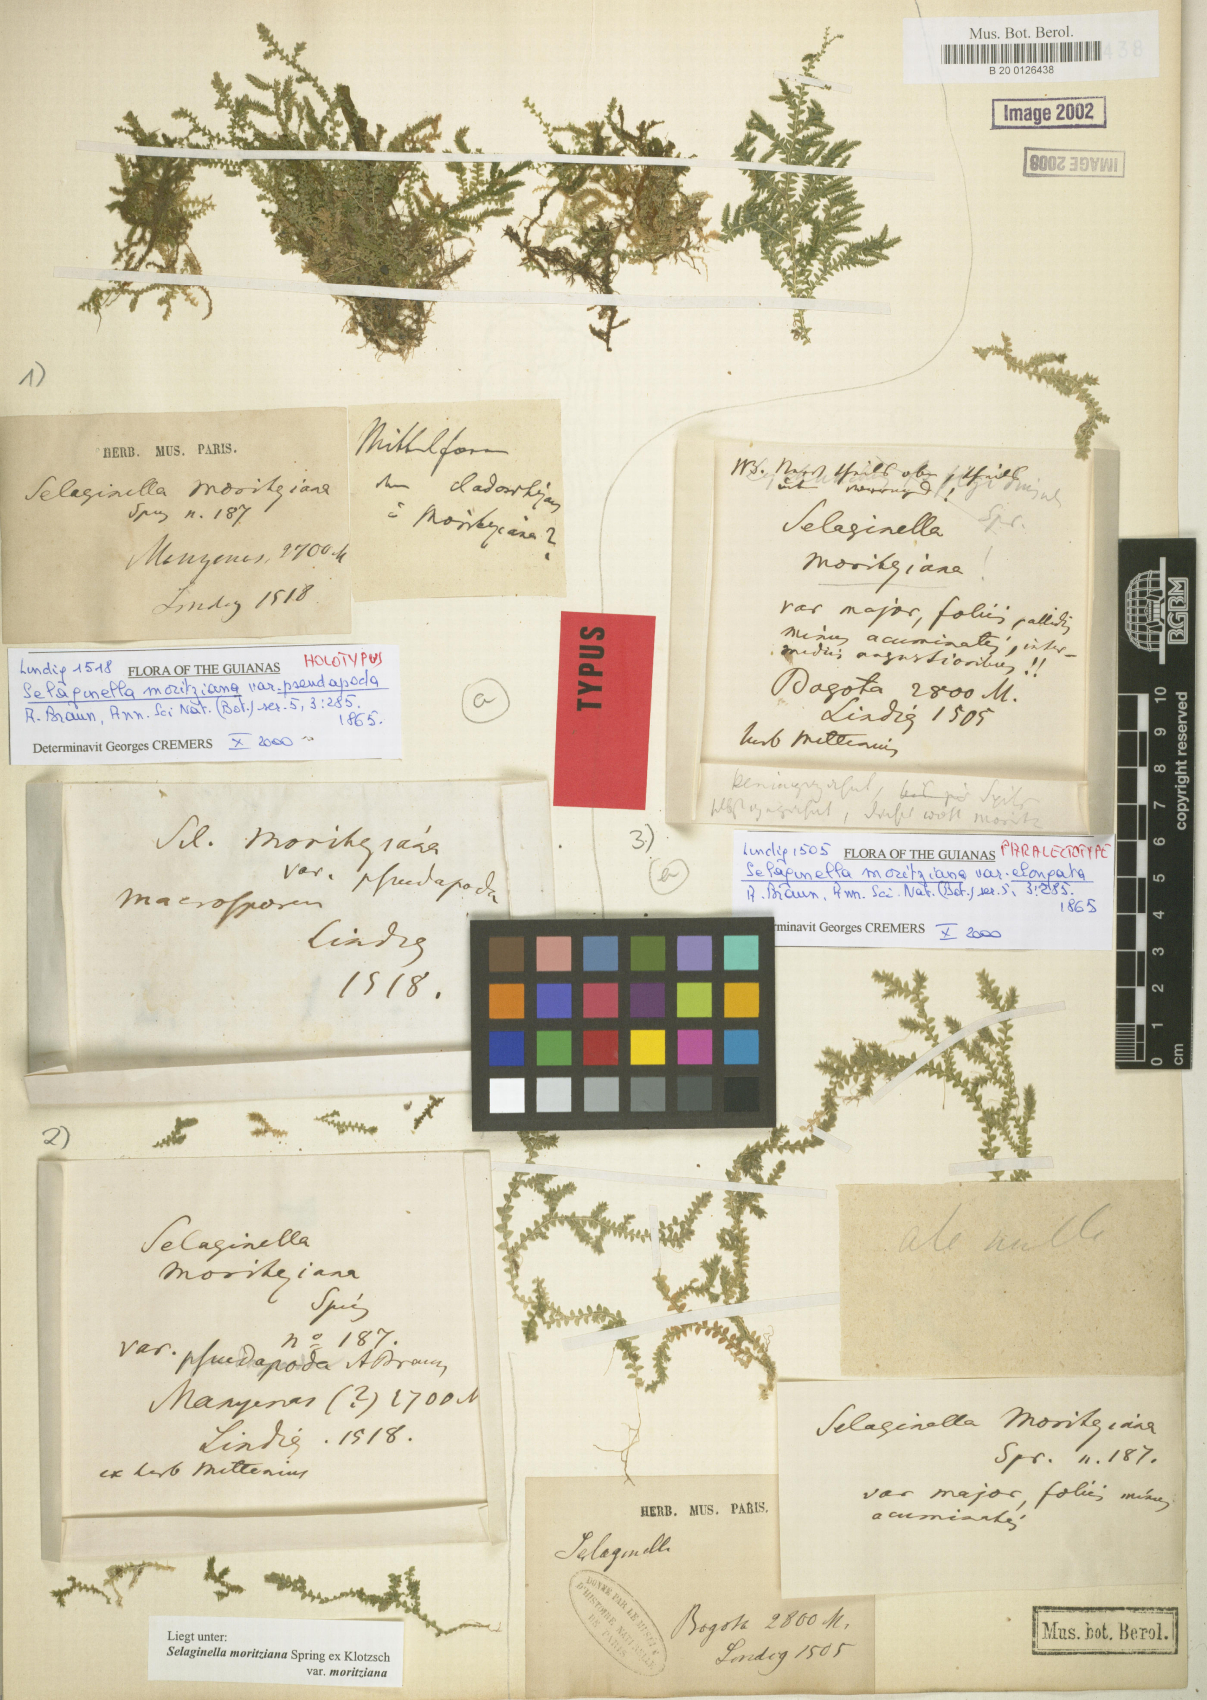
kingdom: Plantae
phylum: Tracheophyta
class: Lycopodiopsida
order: Selaginellales
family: Selaginellaceae
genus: Selaginella
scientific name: Selaginella moritziana
